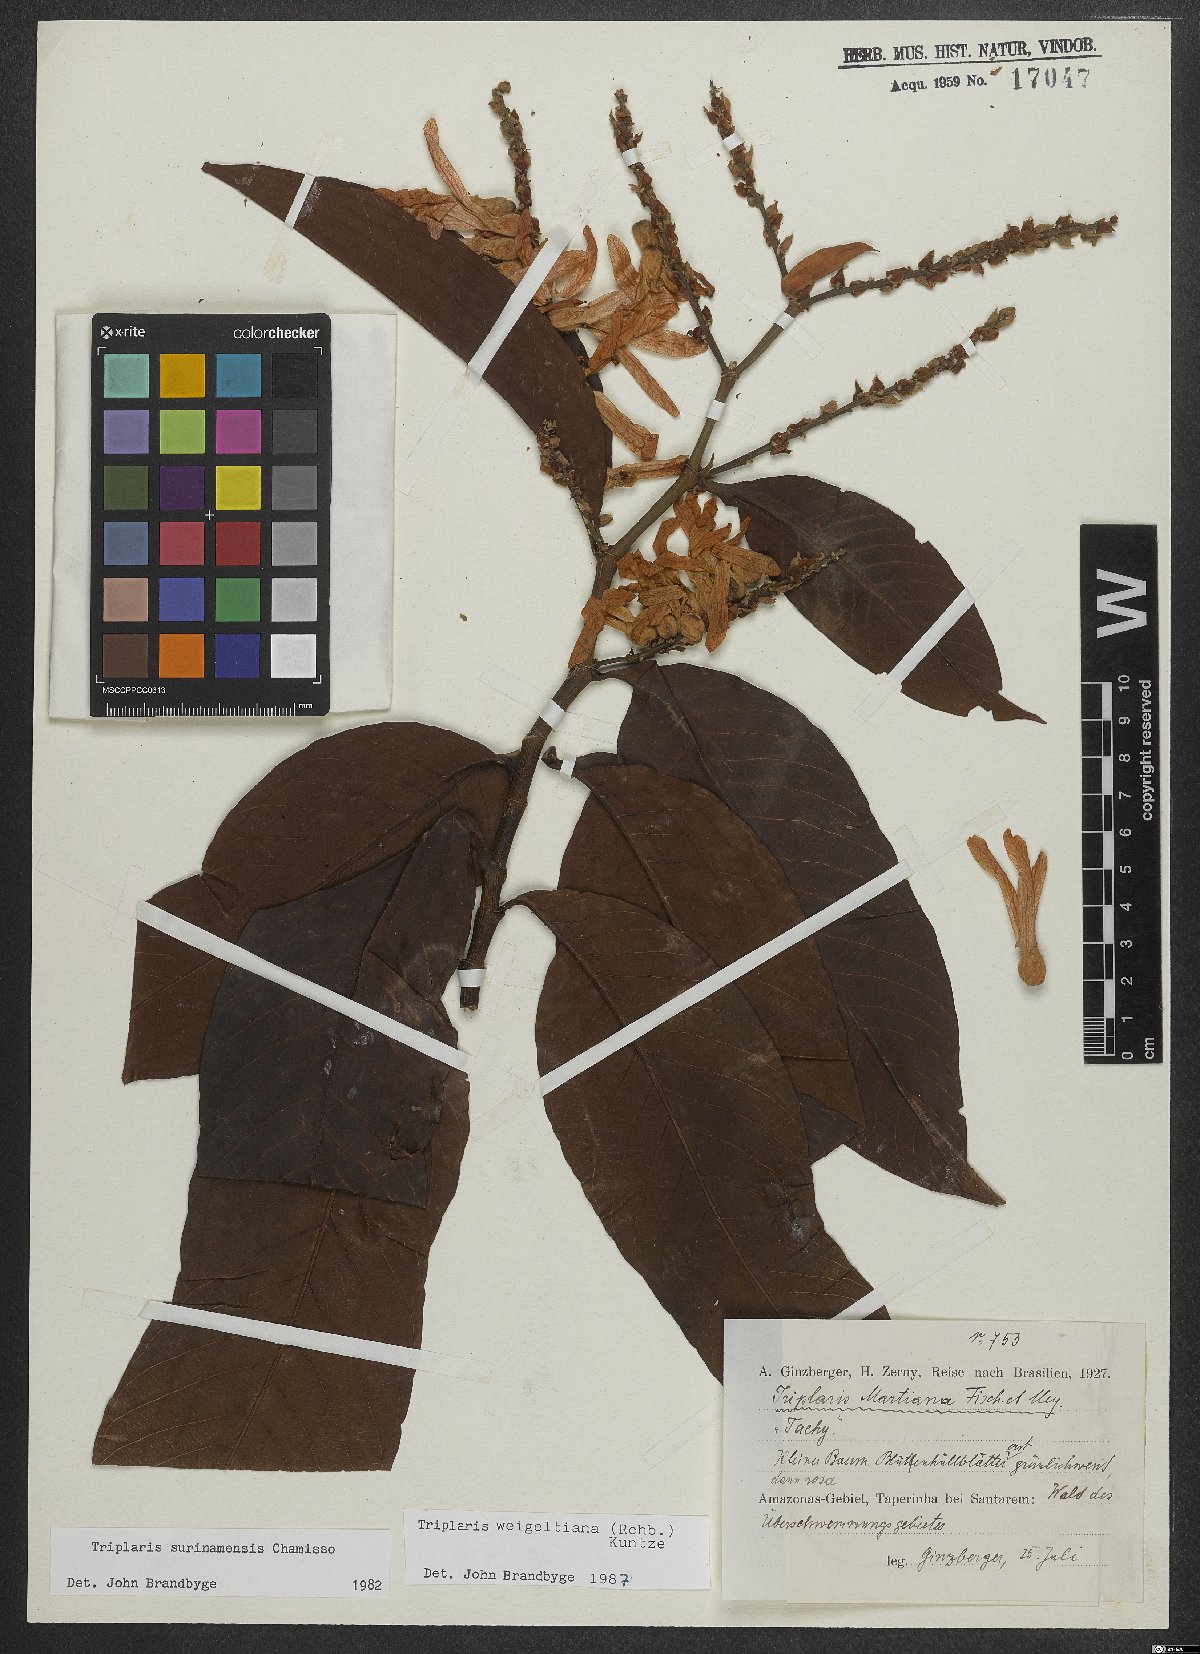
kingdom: Plantae
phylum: Tracheophyta
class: Magnoliopsida
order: Caryophyllales
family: Polygonaceae
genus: Triplaris
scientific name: Triplaris weigeltiana
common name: Long john
